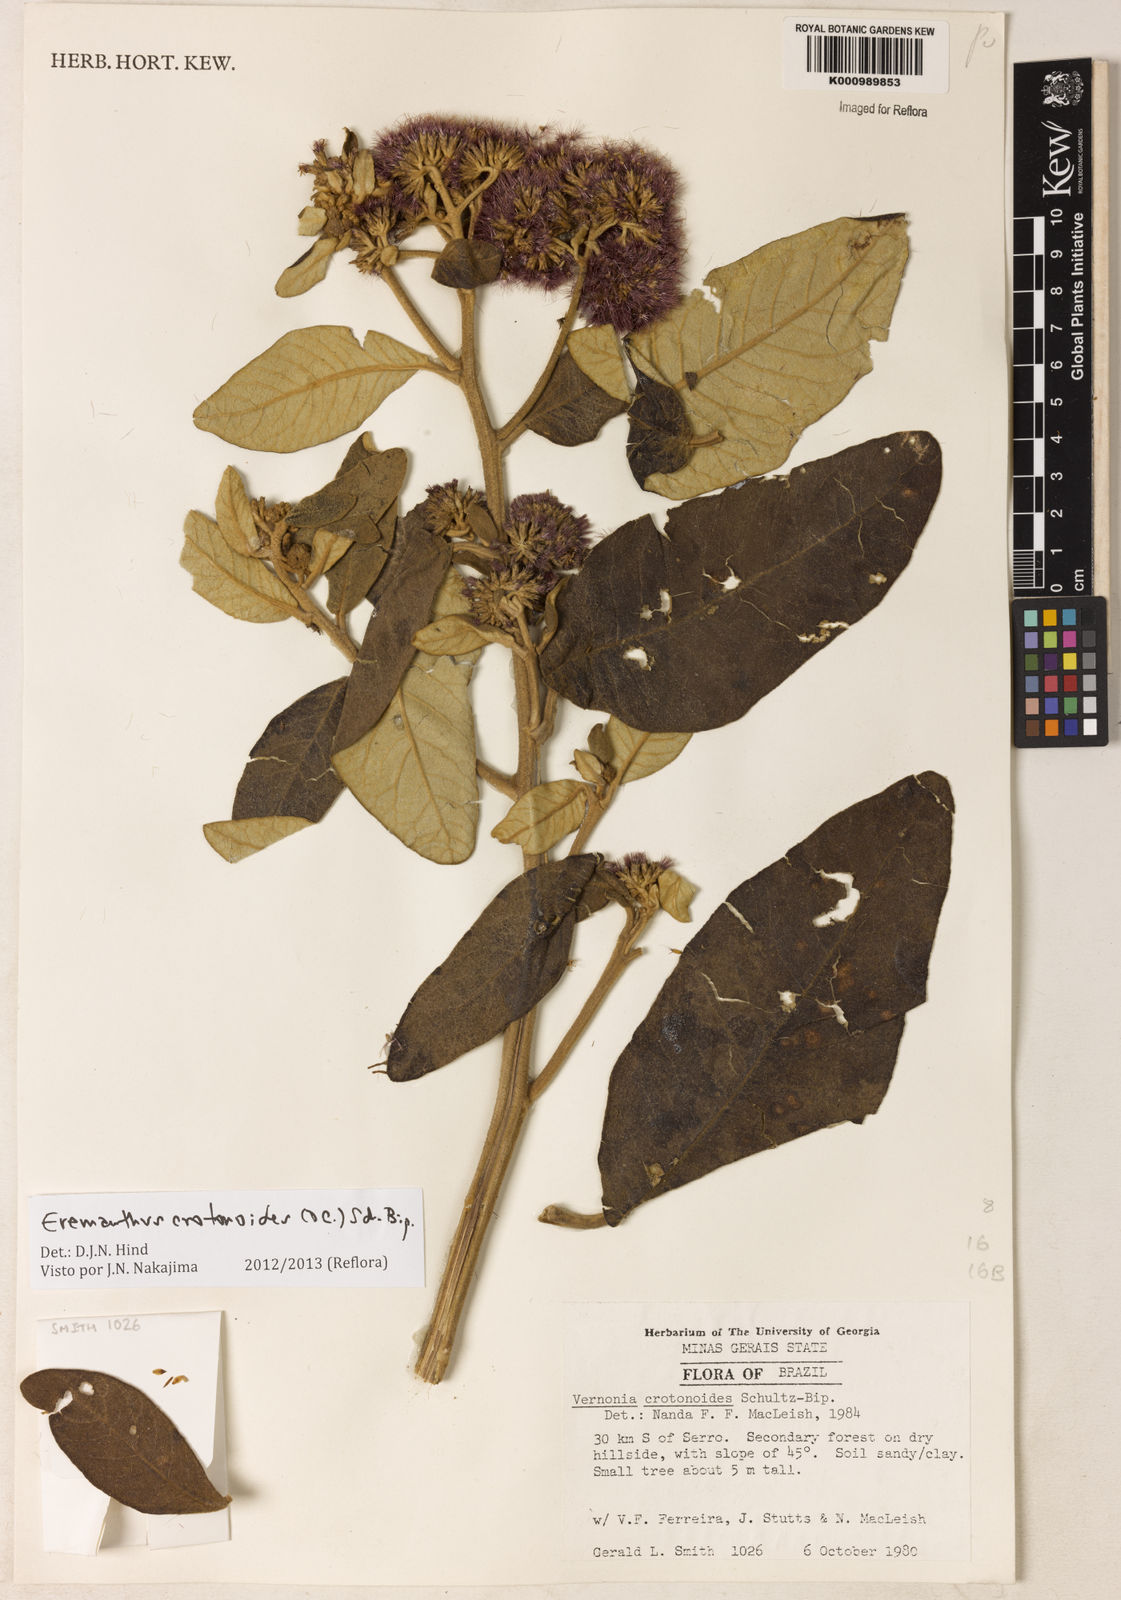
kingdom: Plantae
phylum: Tracheophyta
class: Magnoliopsida
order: Asterales
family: Asteraceae
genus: Eremanthus
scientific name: Eremanthus crotonoides
